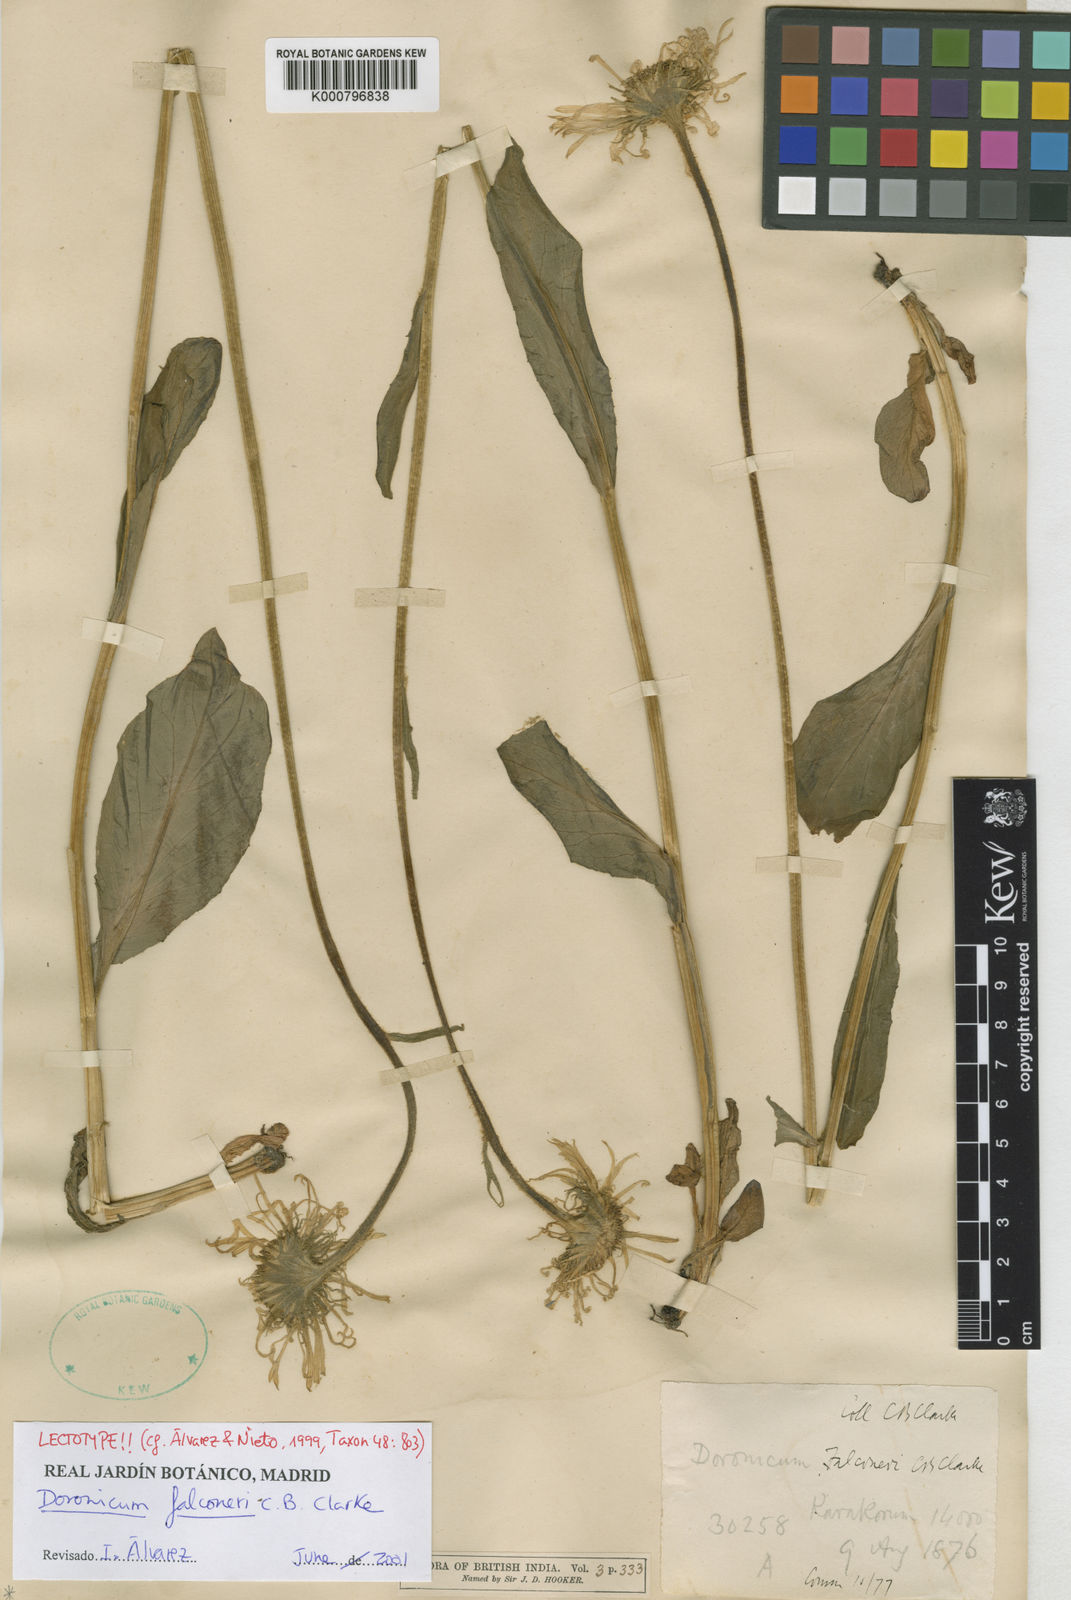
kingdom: Plantae
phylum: Tracheophyta
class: Magnoliopsida
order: Asterales
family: Asteraceae
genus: Doronicum
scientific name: Doronicum falconeri
